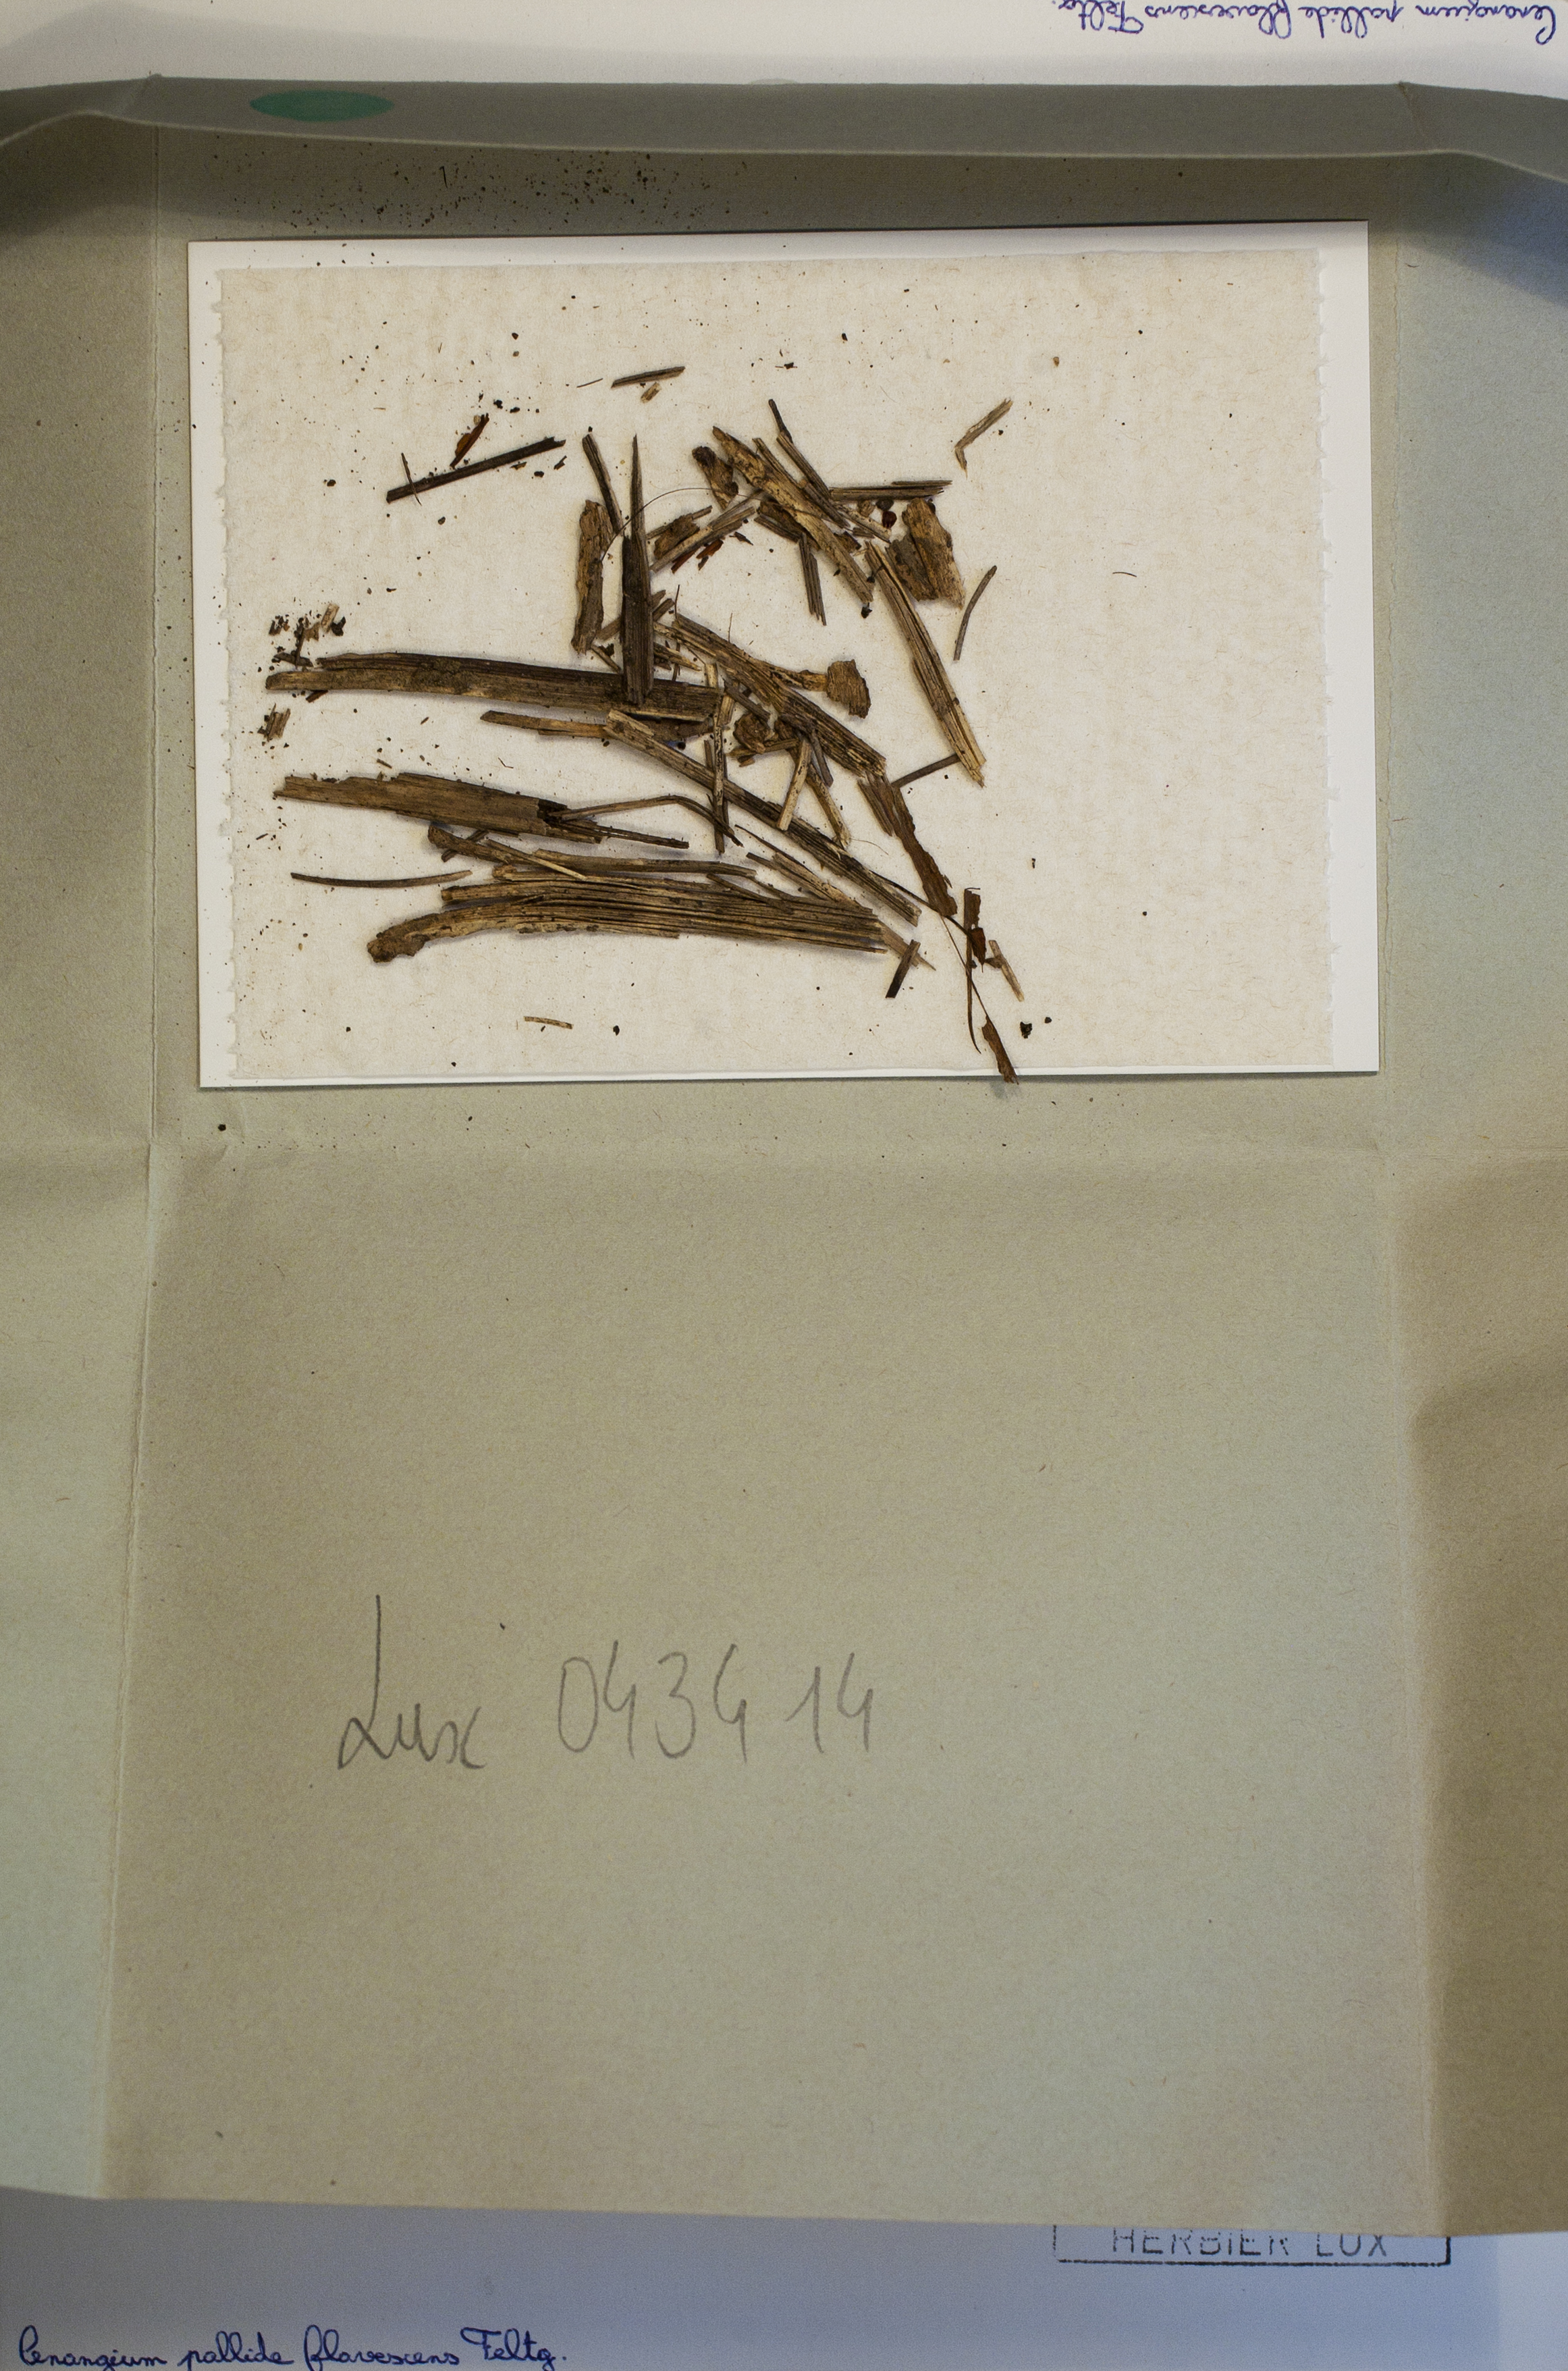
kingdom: Fungi
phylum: Ascomycota
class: Leotiomycetes
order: Helotiales
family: Cenangiaceae
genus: Cenangium
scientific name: Cenangium pallidoflavescens
